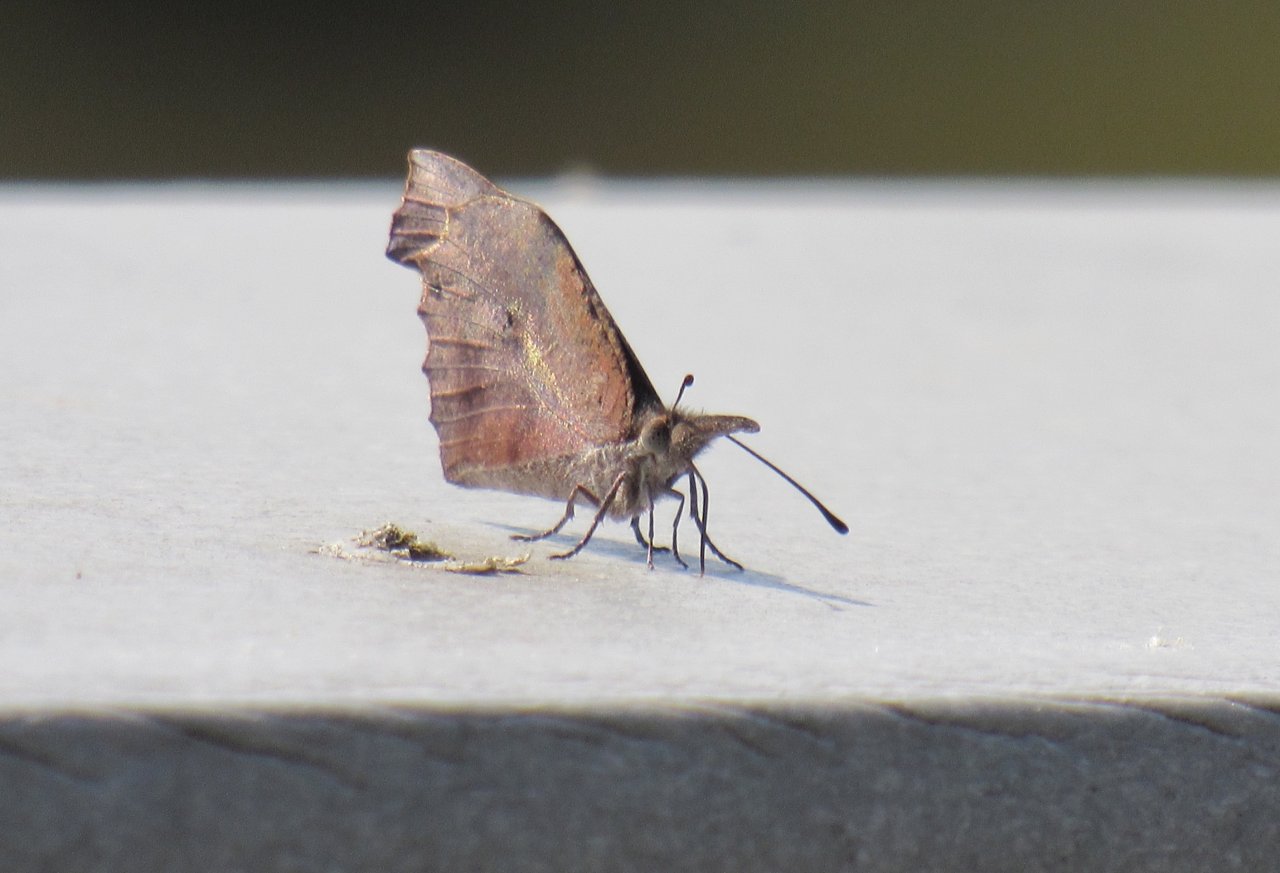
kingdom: Animalia
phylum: Arthropoda
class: Insecta
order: Lepidoptera
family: Nymphalidae
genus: Libytheana
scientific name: Libytheana carinenta
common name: American Snout
